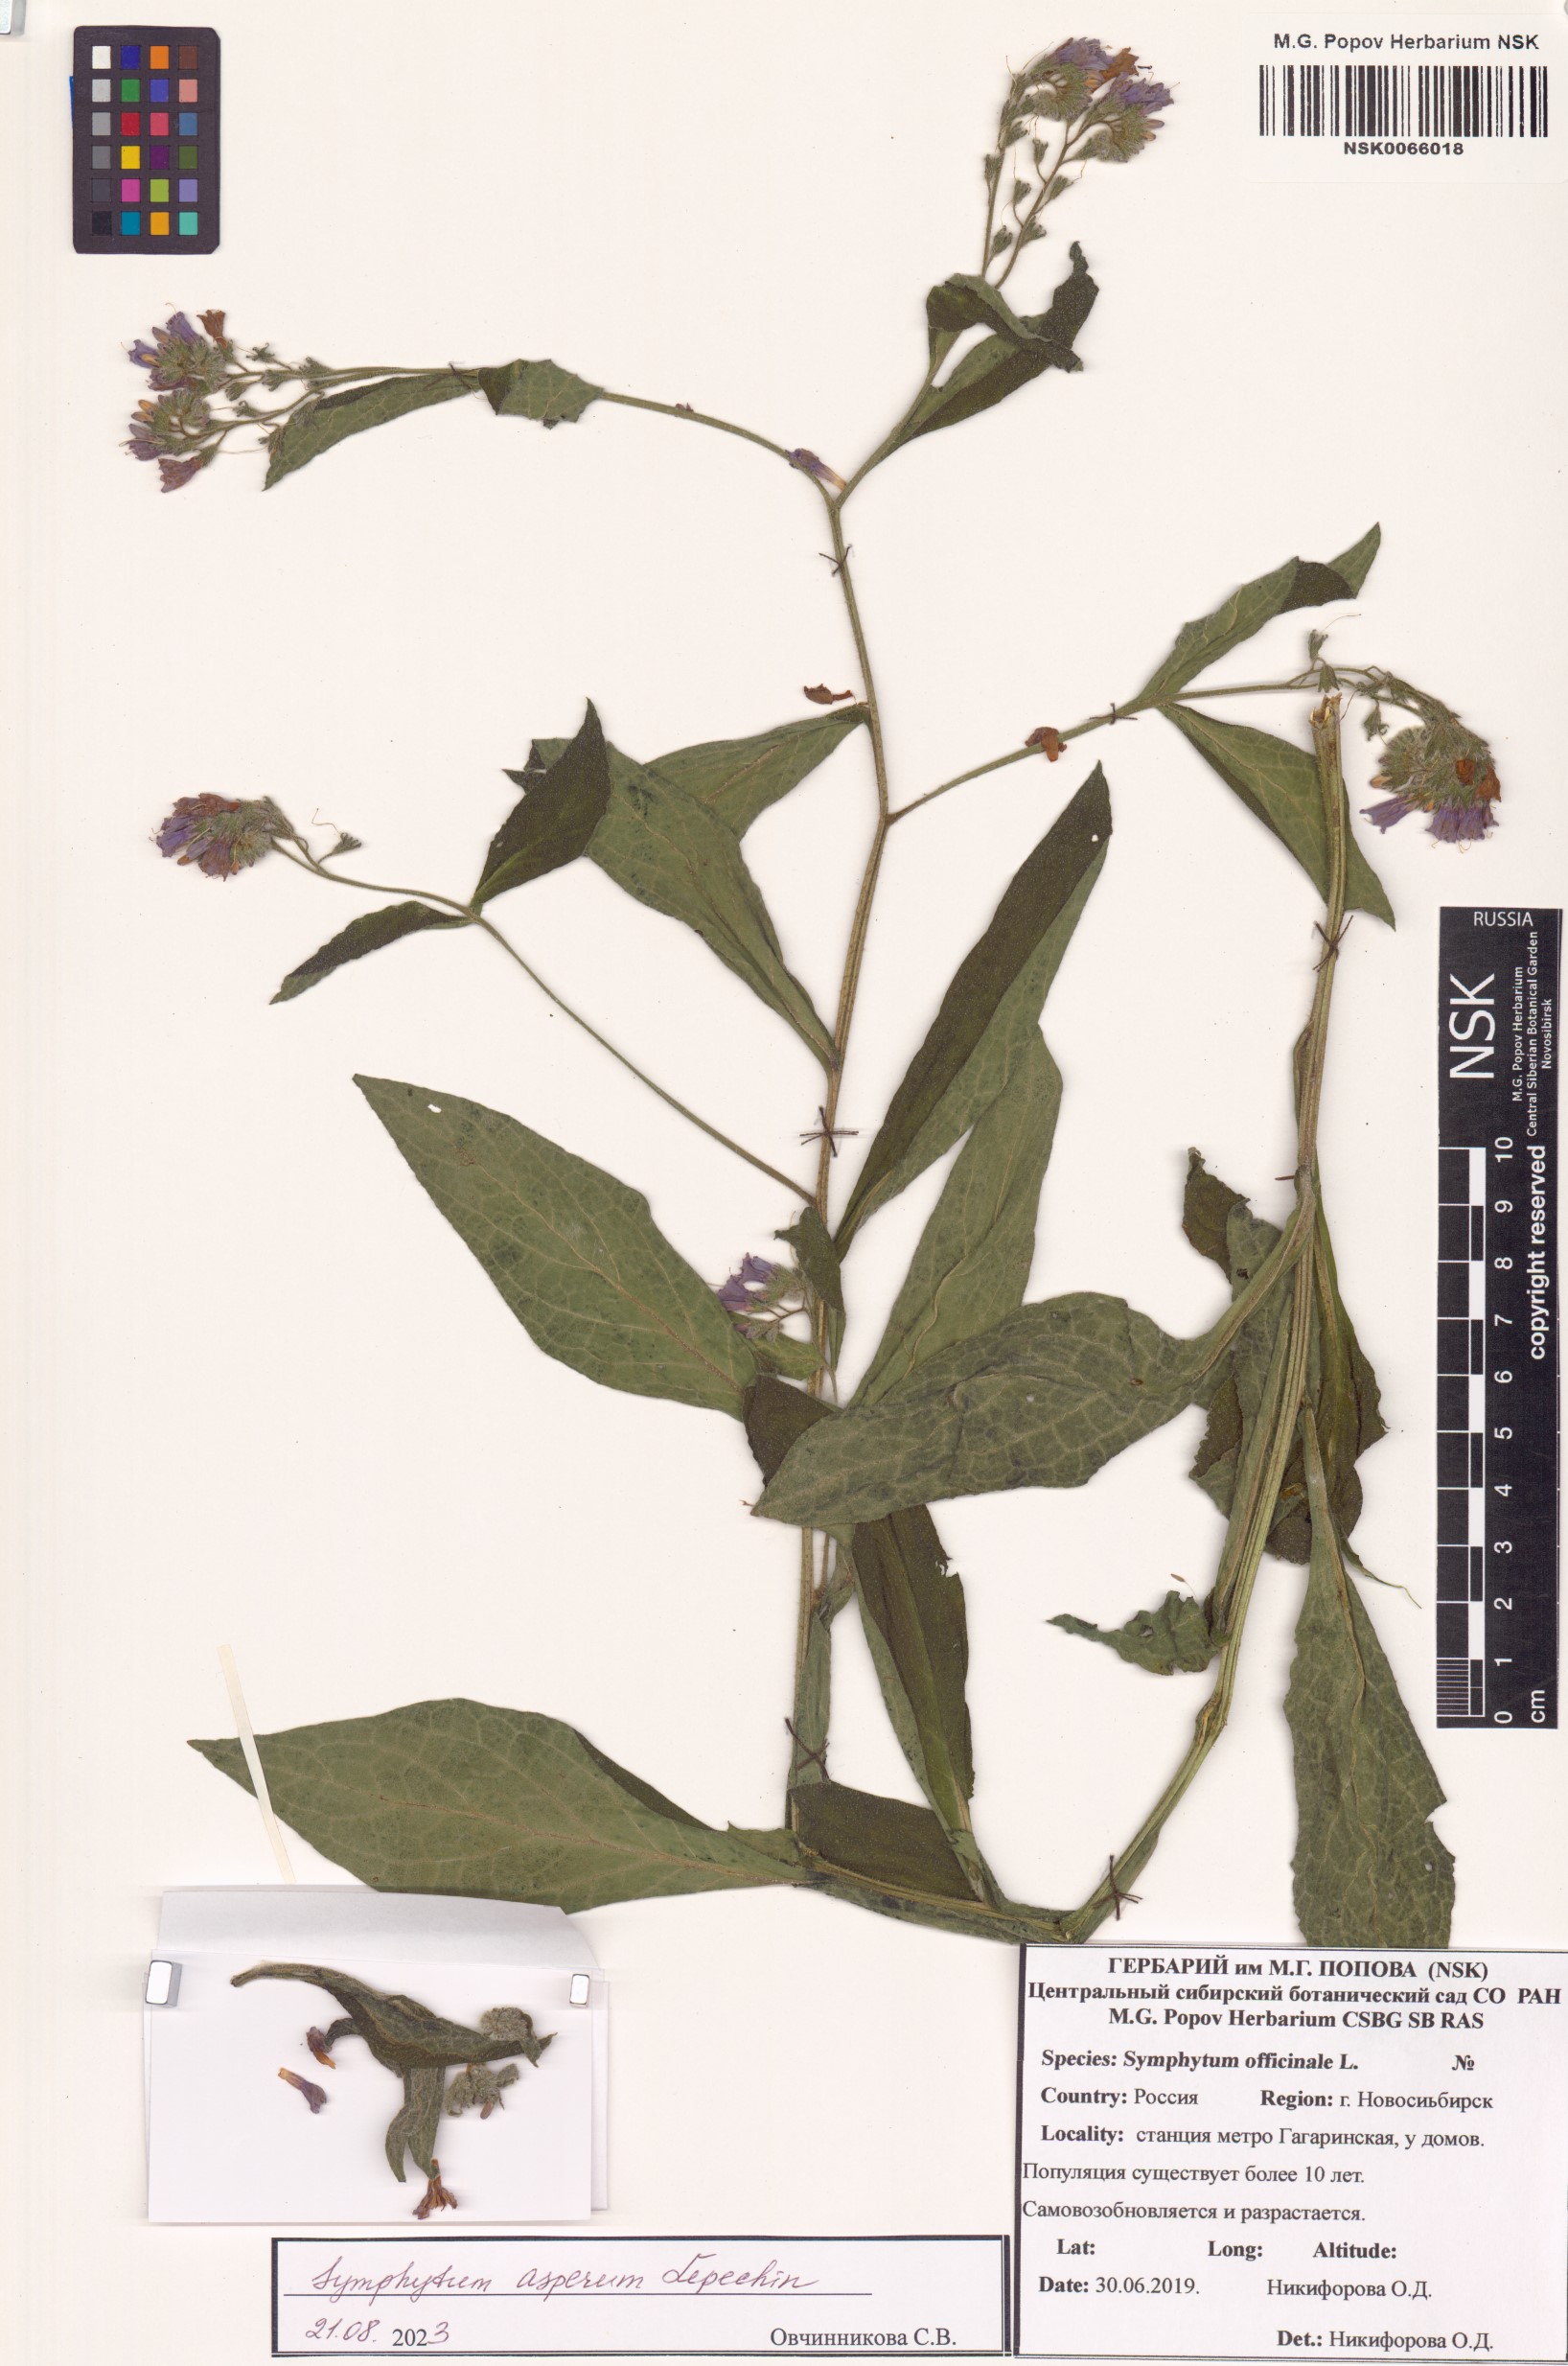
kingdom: Plantae
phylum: Tracheophyta
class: Magnoliopsida
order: Boraginales
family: Boraginaceae
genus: Symphytum
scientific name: Symphytum officinale
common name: Common comfrey
